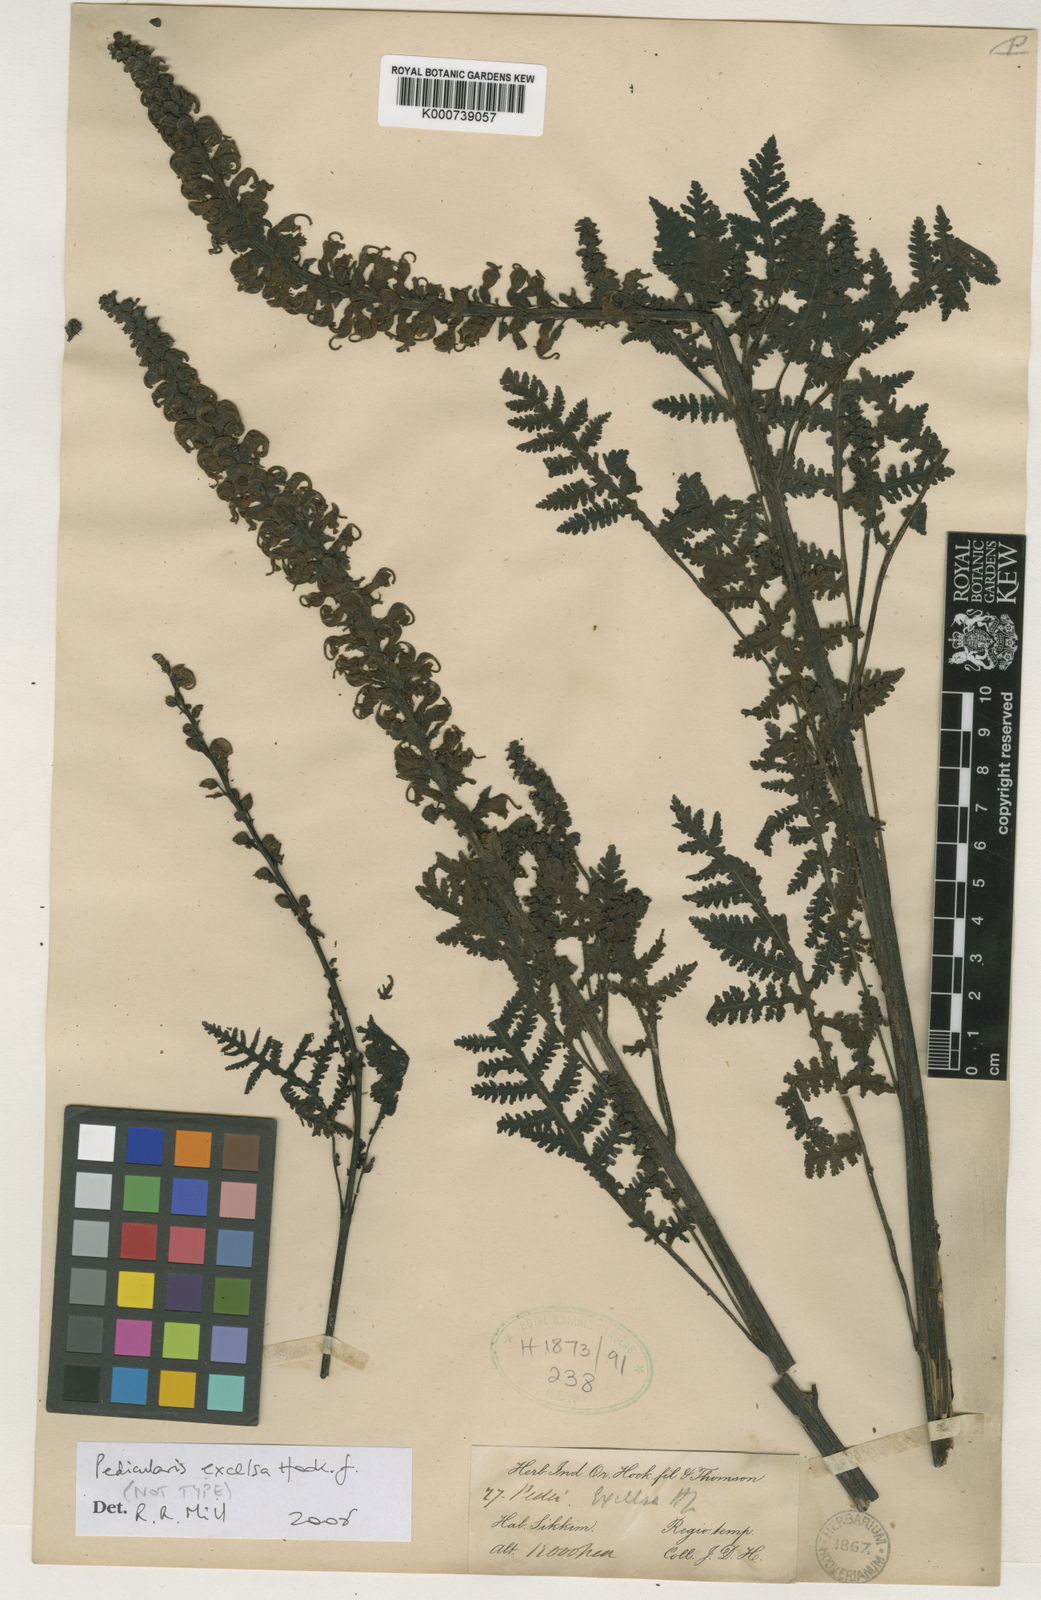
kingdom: Plantae
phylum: Tracheophyta
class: Magnoliopsida
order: Lamiales
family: Orobanchaceae
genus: Pedicularis
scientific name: Pedicularis excelsa
